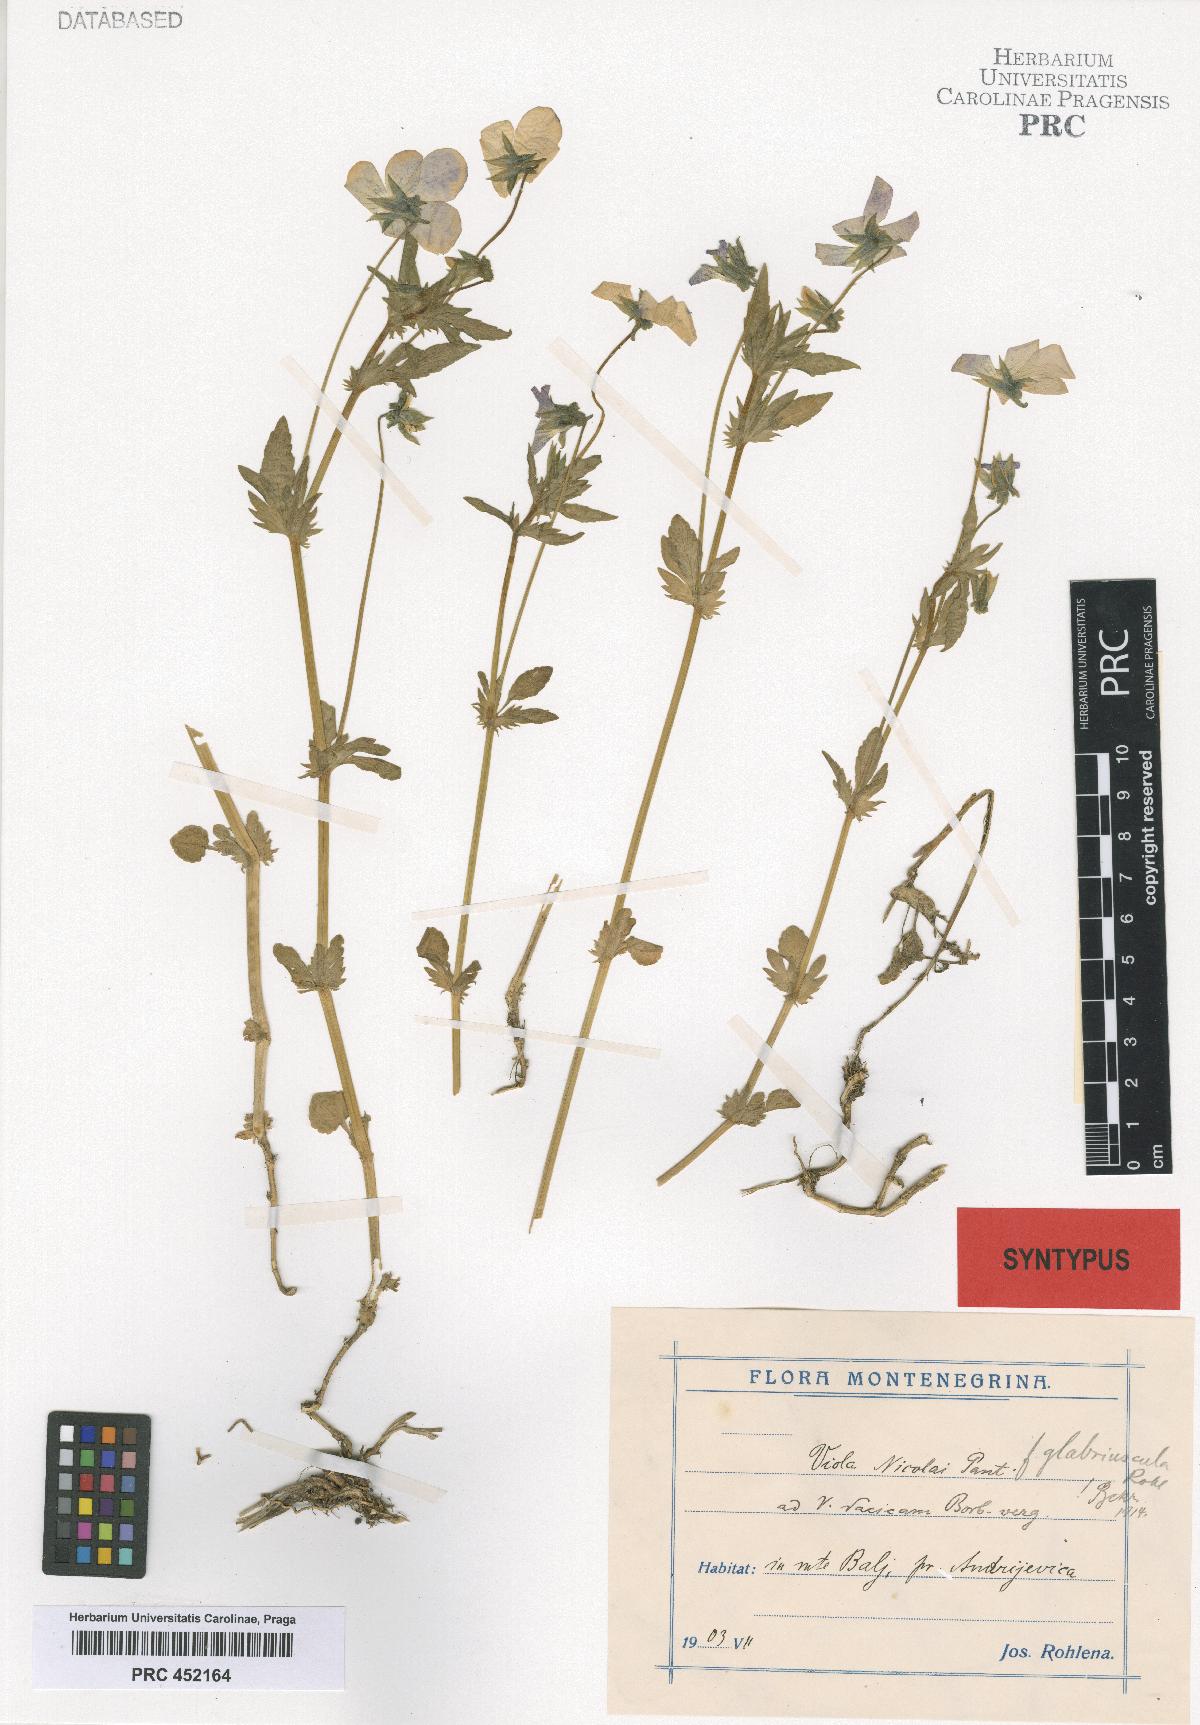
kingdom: Plantae
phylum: Tracheophyta
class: Magnoliopsida
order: Malpighiales
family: Violaceae
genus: Viola
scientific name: Viola orphanidis
